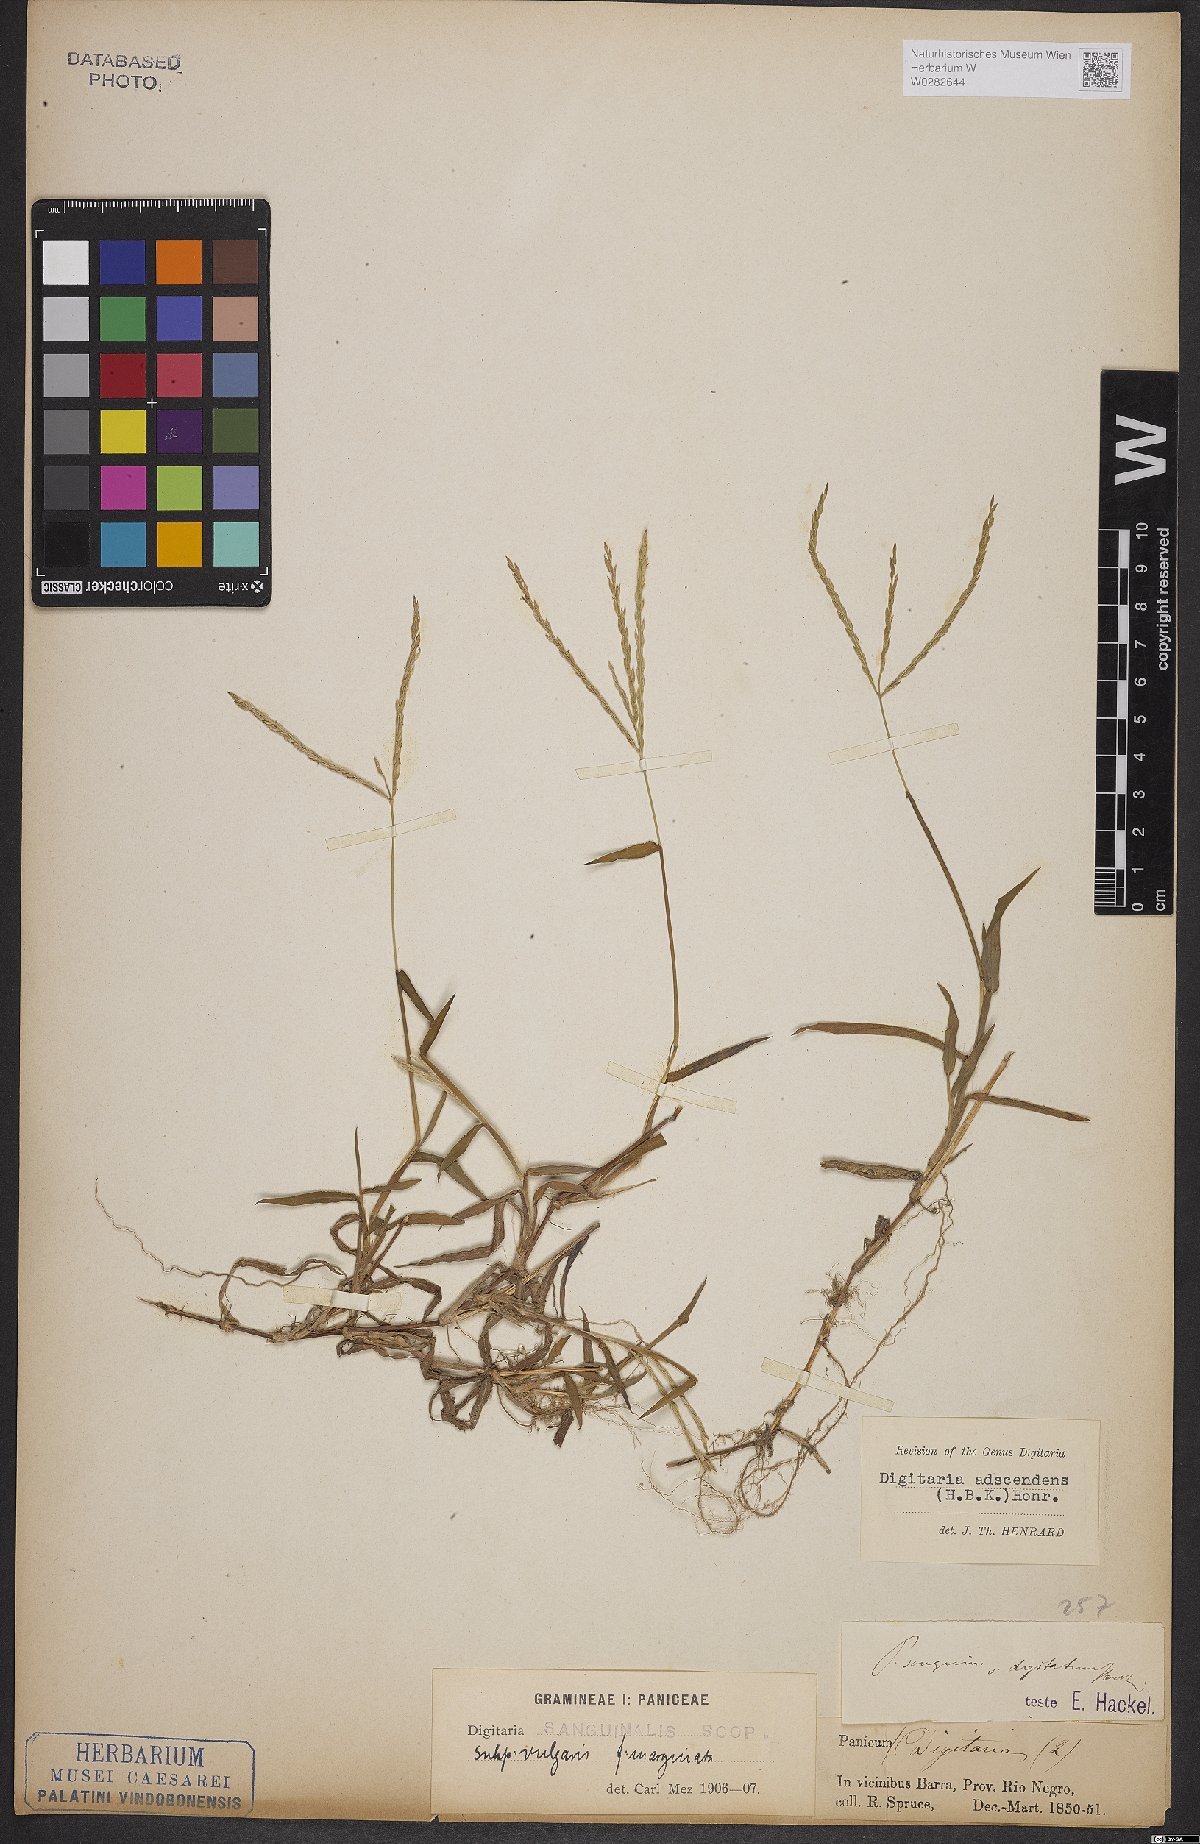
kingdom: Plantae
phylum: Tracheophyta
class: Liliopsida
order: Poales
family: Poaceae
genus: Digitaria
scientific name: Digitaria ciliaris
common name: Tropical finger-grass
